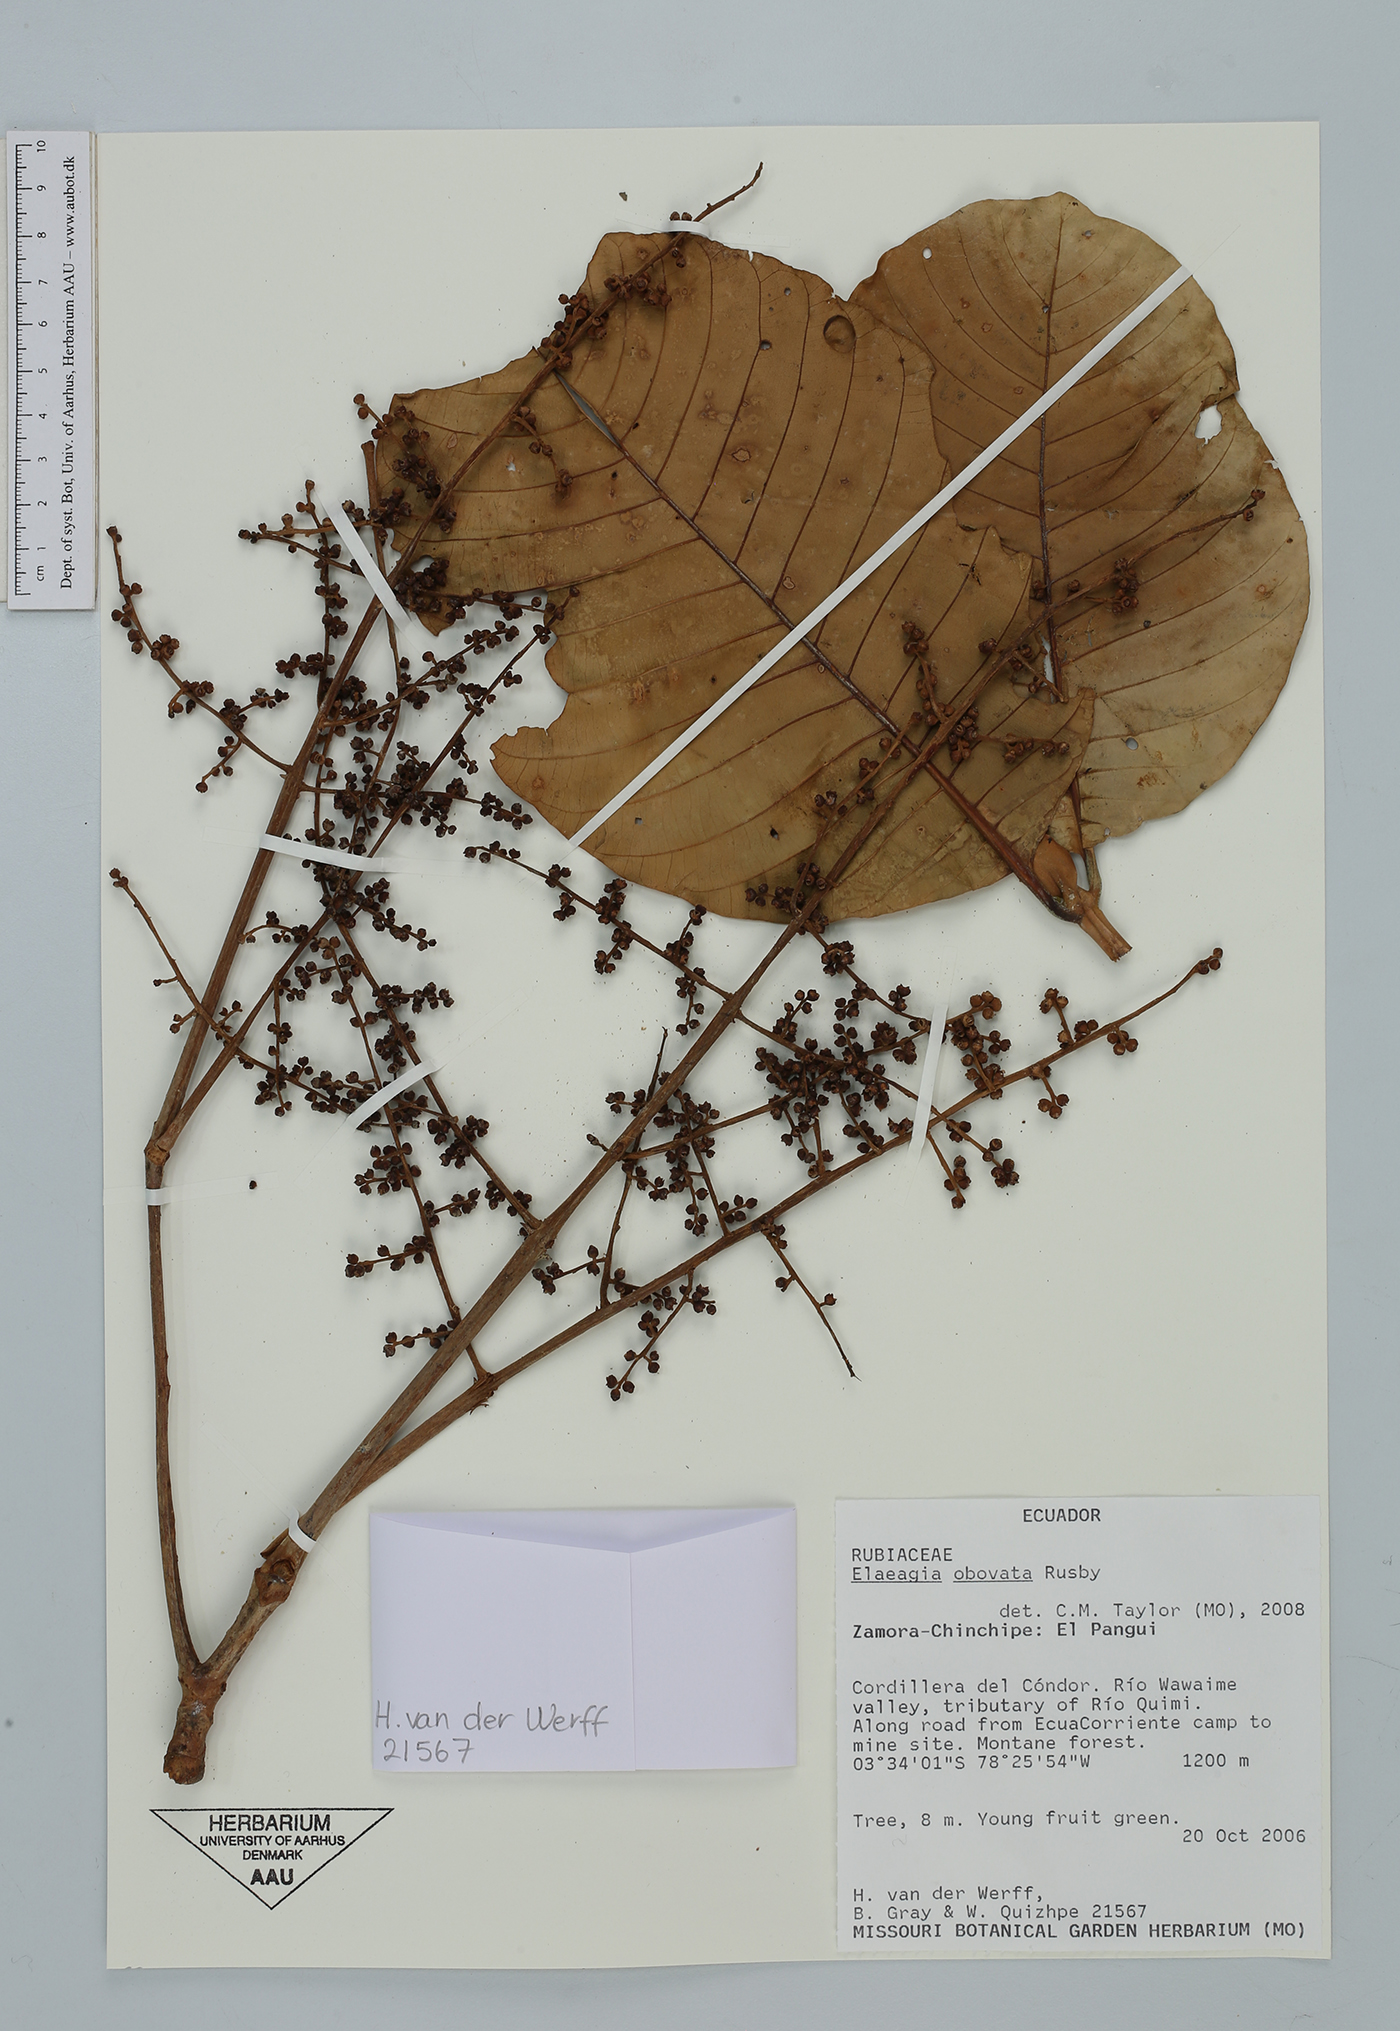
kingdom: Plantae
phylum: Tracheophyta
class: Magnoliopsida
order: Gentianales
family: Rubiaceae
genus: Elaeagia
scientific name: Elaeagia mariae
